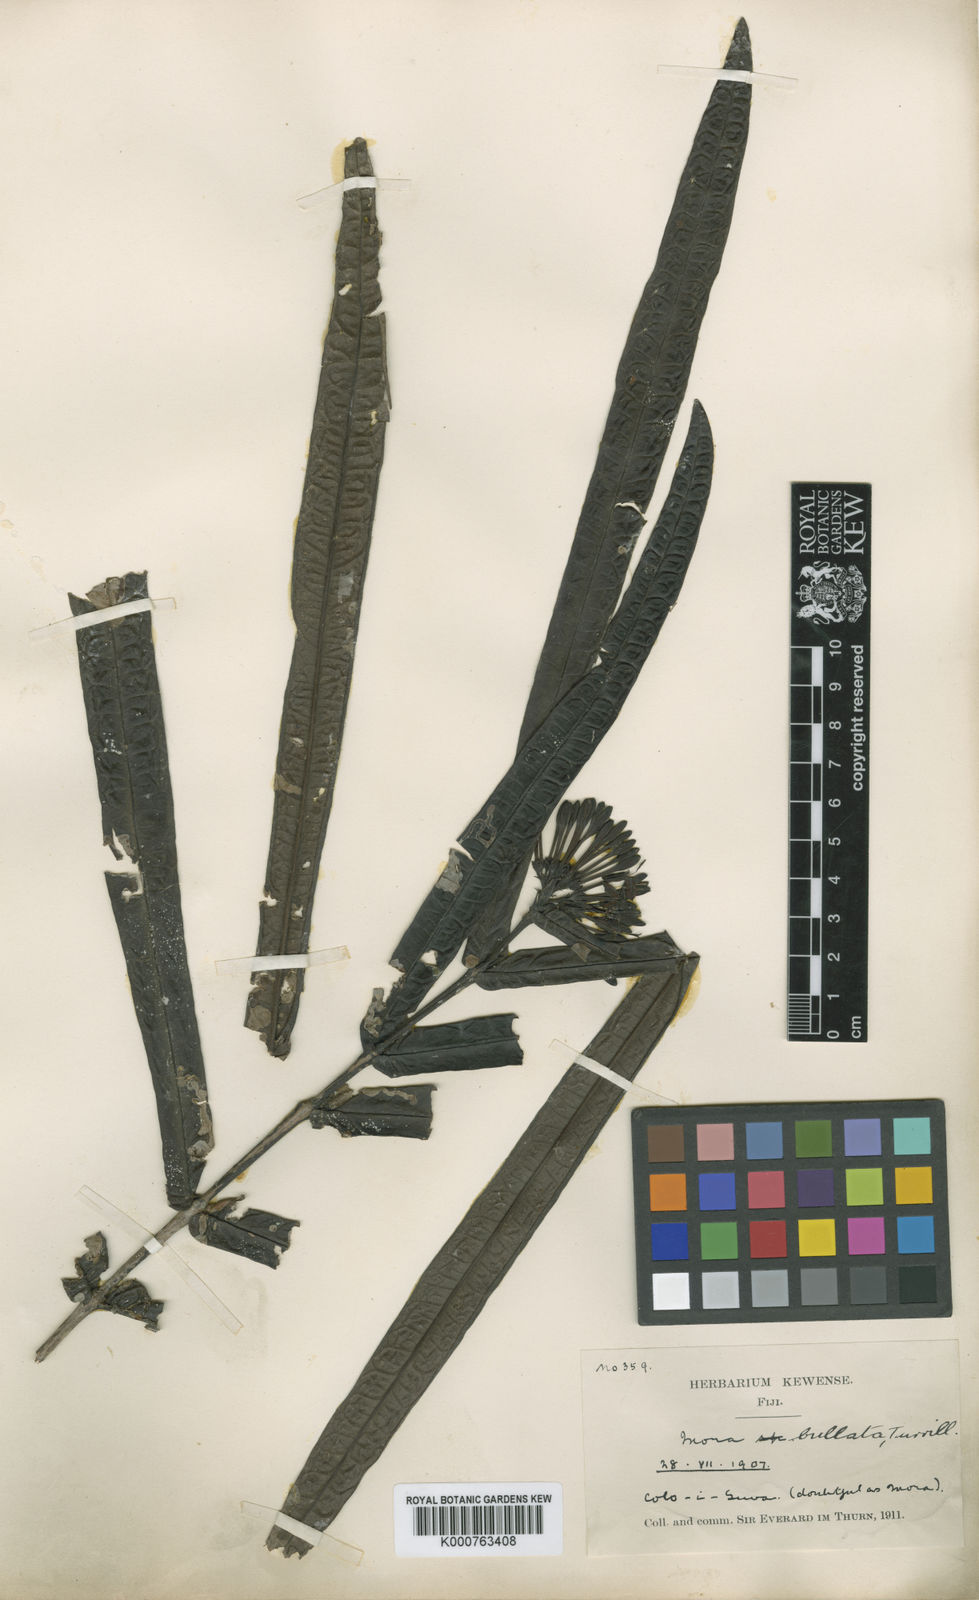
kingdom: Plantae
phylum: Tracheophyta
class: Magnoliopsida
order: Gentianales
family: Rubiaceae
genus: Ixora
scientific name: Ixora bullata
